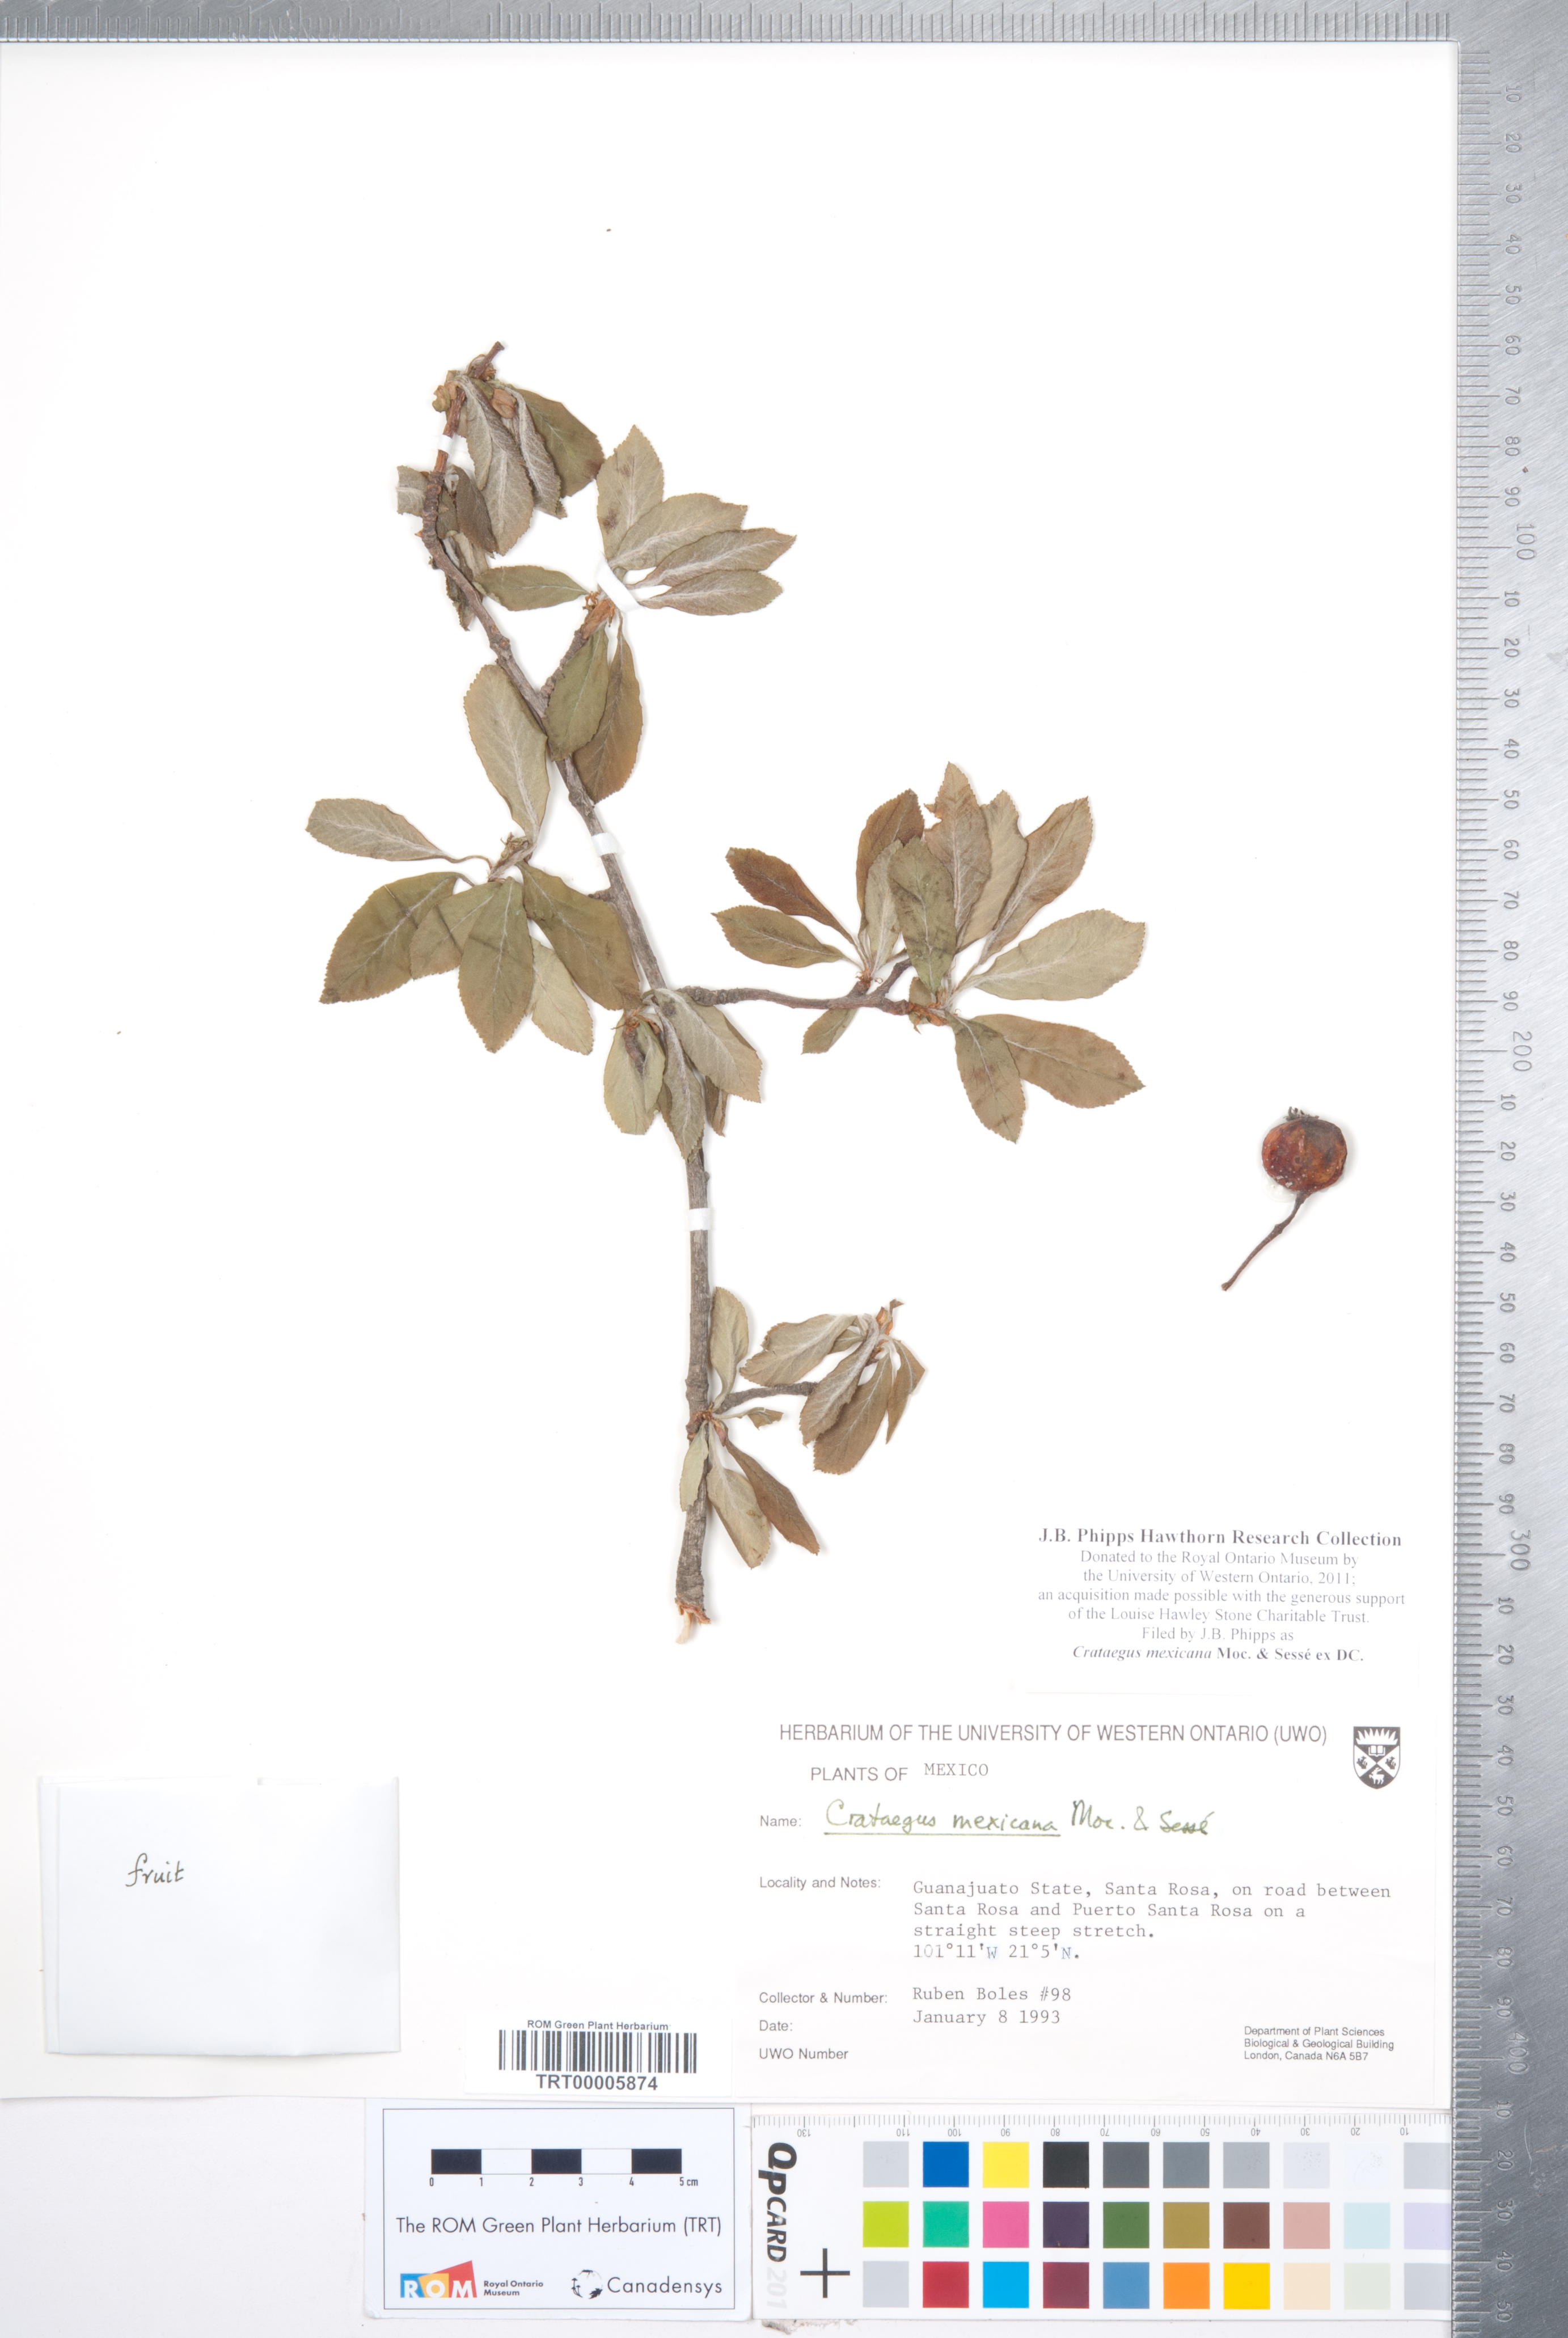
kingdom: Plantae
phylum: Tracheophyta
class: Magnoliopsida
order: Rosales
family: Rosaceae
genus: Crataegus
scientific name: Crataegus mexicana
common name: Mexican hawthorn
